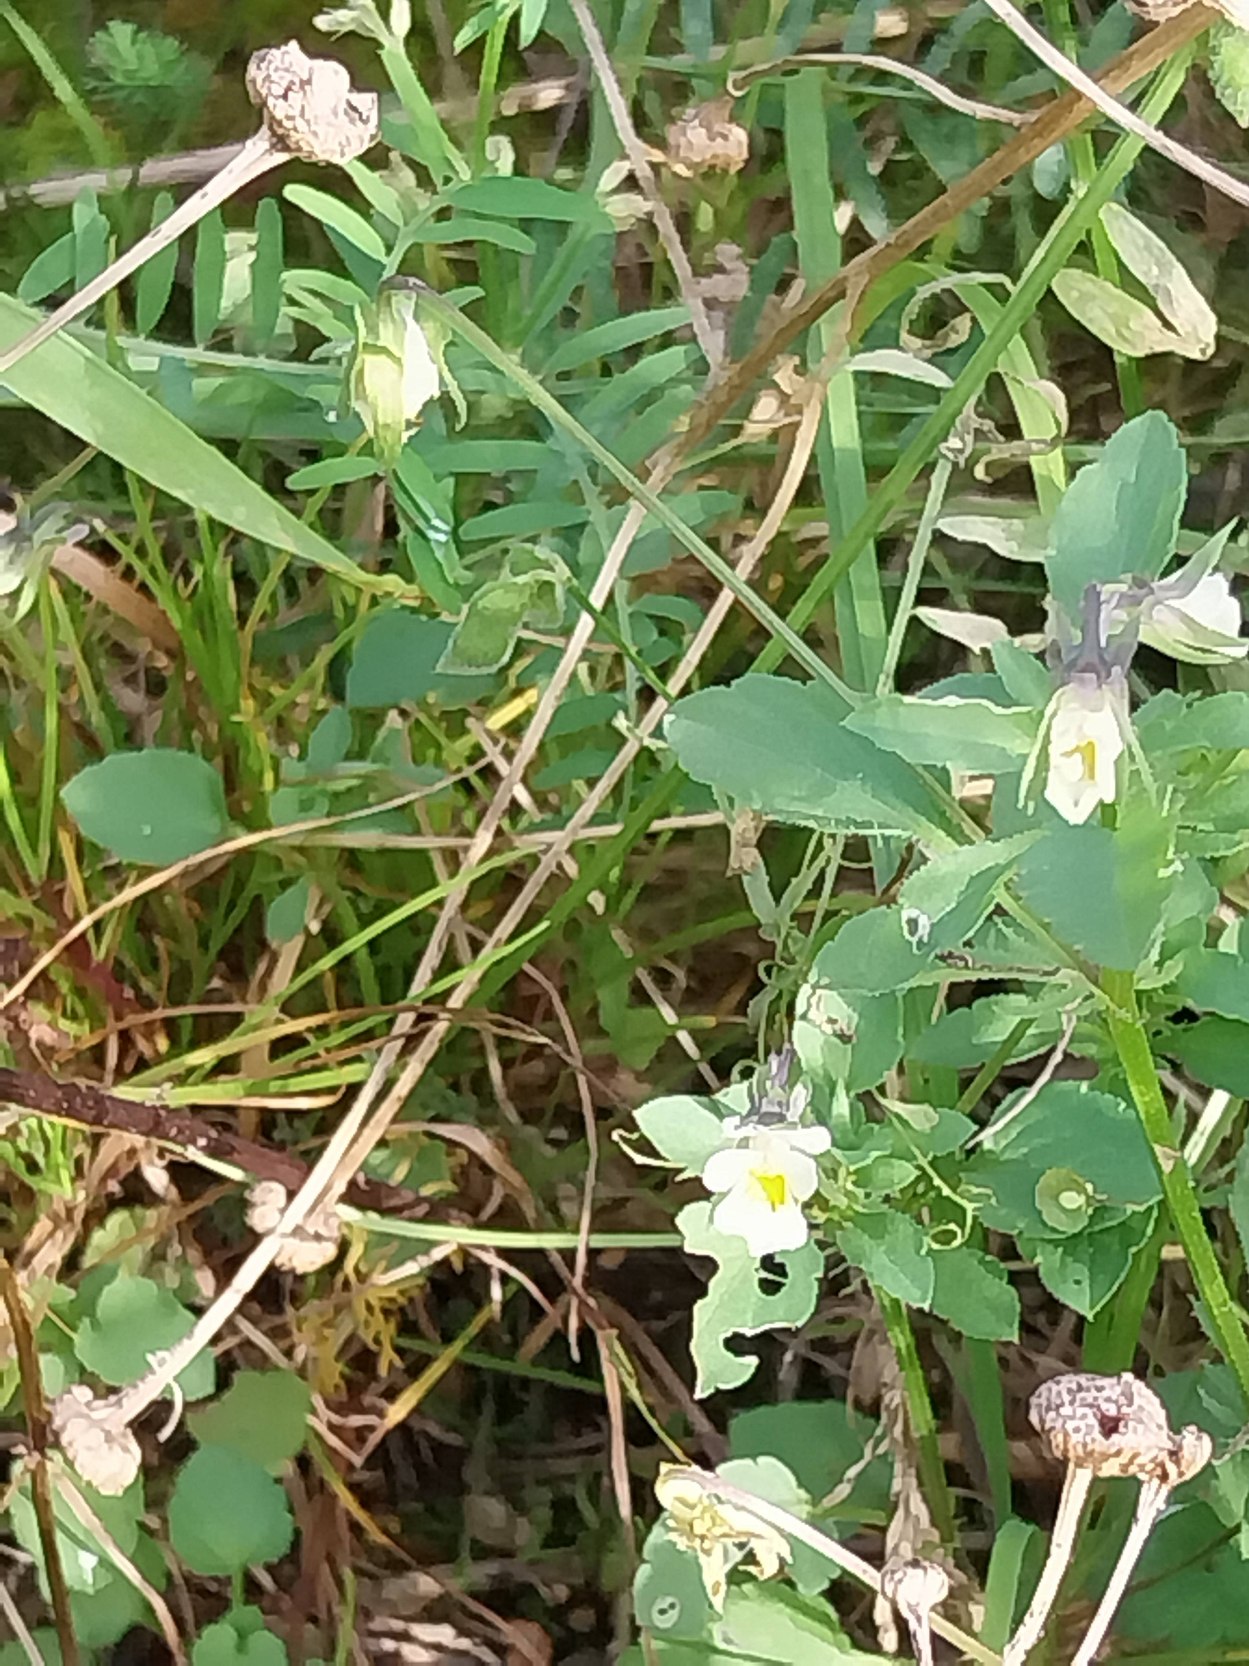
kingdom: Plantae
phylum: Tracheophyta
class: Magnoliopsida
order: Malpighiales
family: Violaceae
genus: Viola
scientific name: Viola arvensis
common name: Ager-stedmoderblomst
